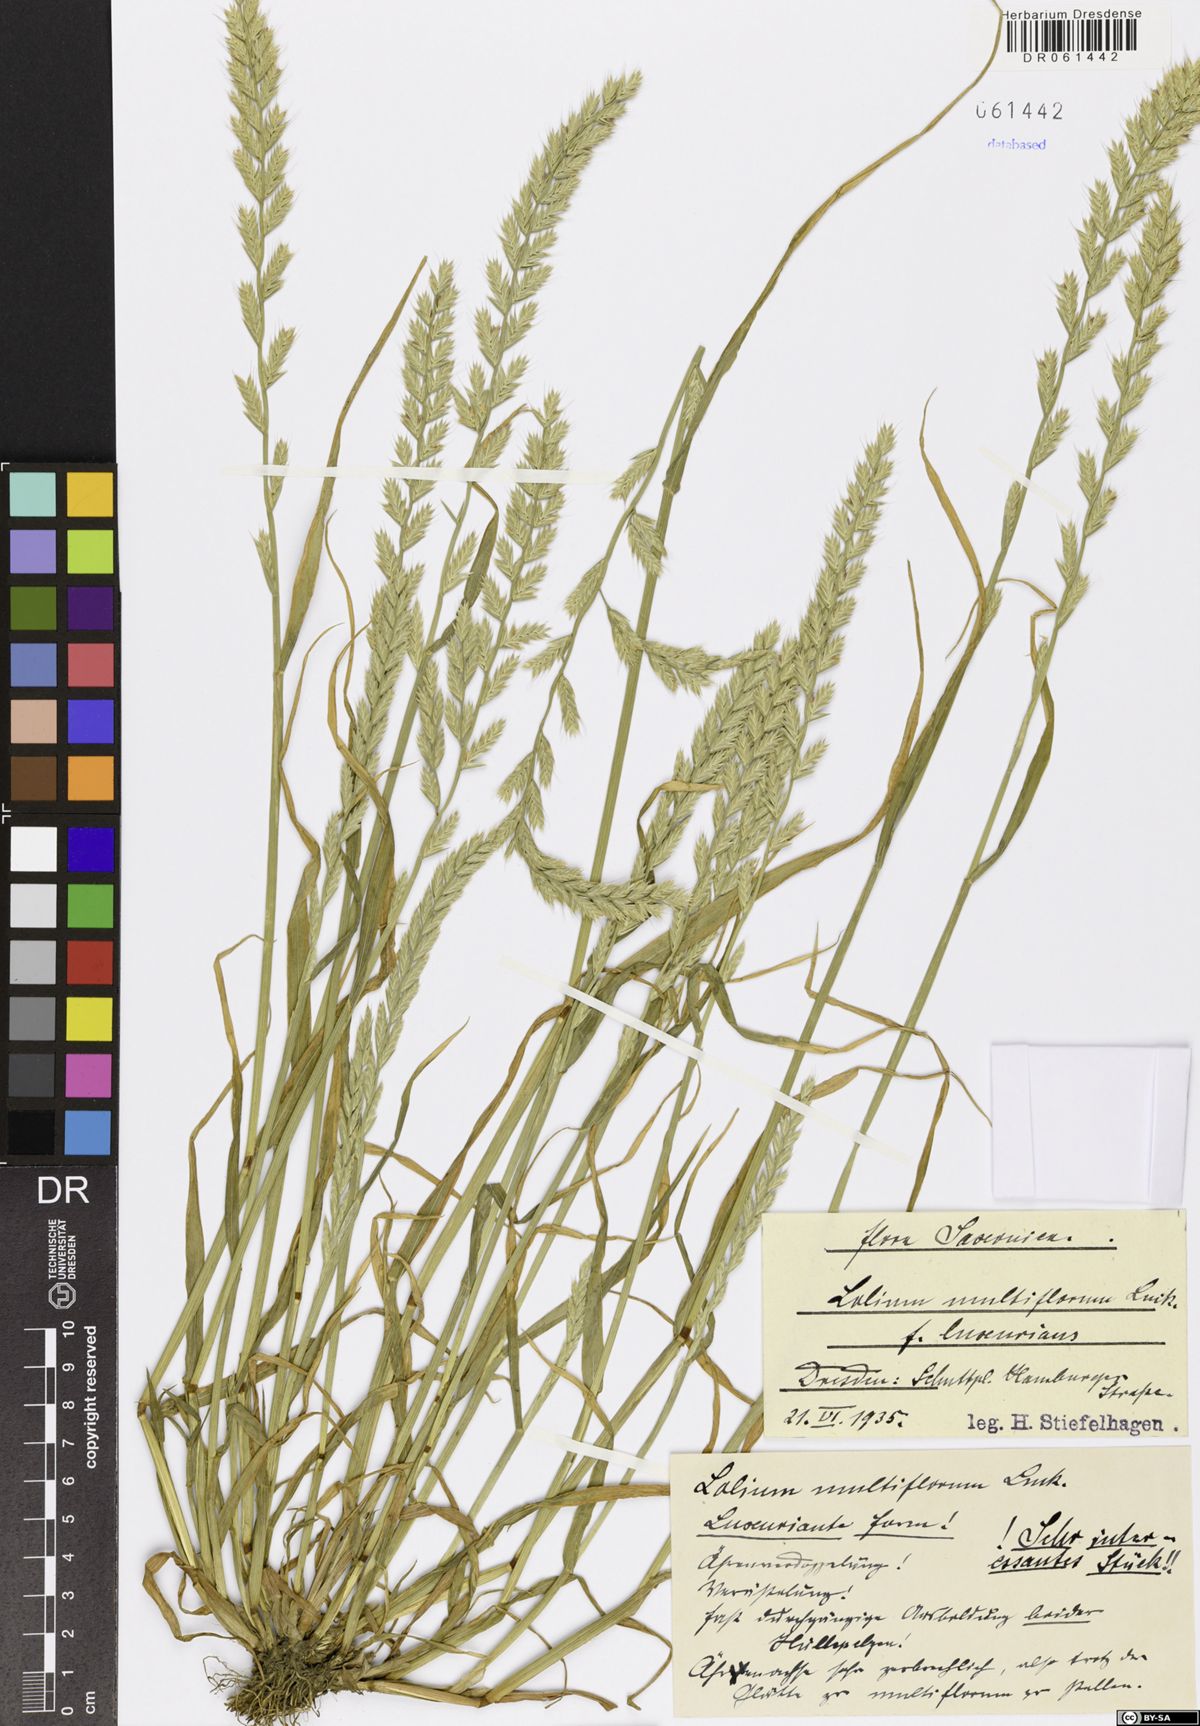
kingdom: Plantae
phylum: Tracheophyta
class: Liliopsida
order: Poales
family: Poaceae
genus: Lolium
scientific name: Lolium multiflorum
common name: Annual ryegrass
